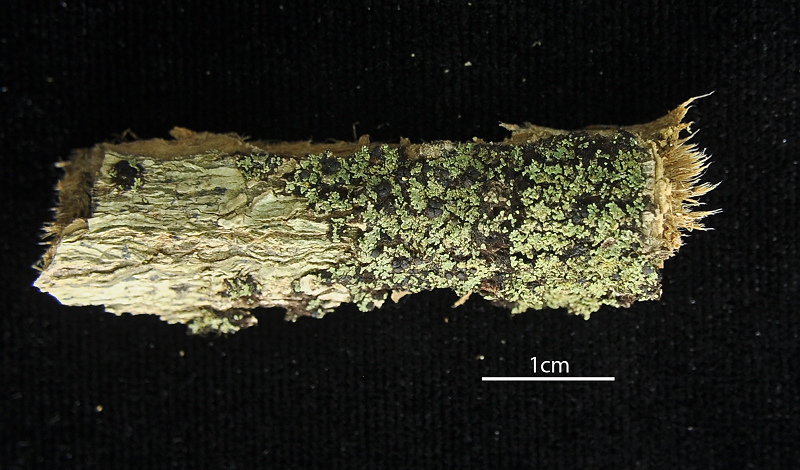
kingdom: Fungi
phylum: Ascomycota
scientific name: Ascomycota
